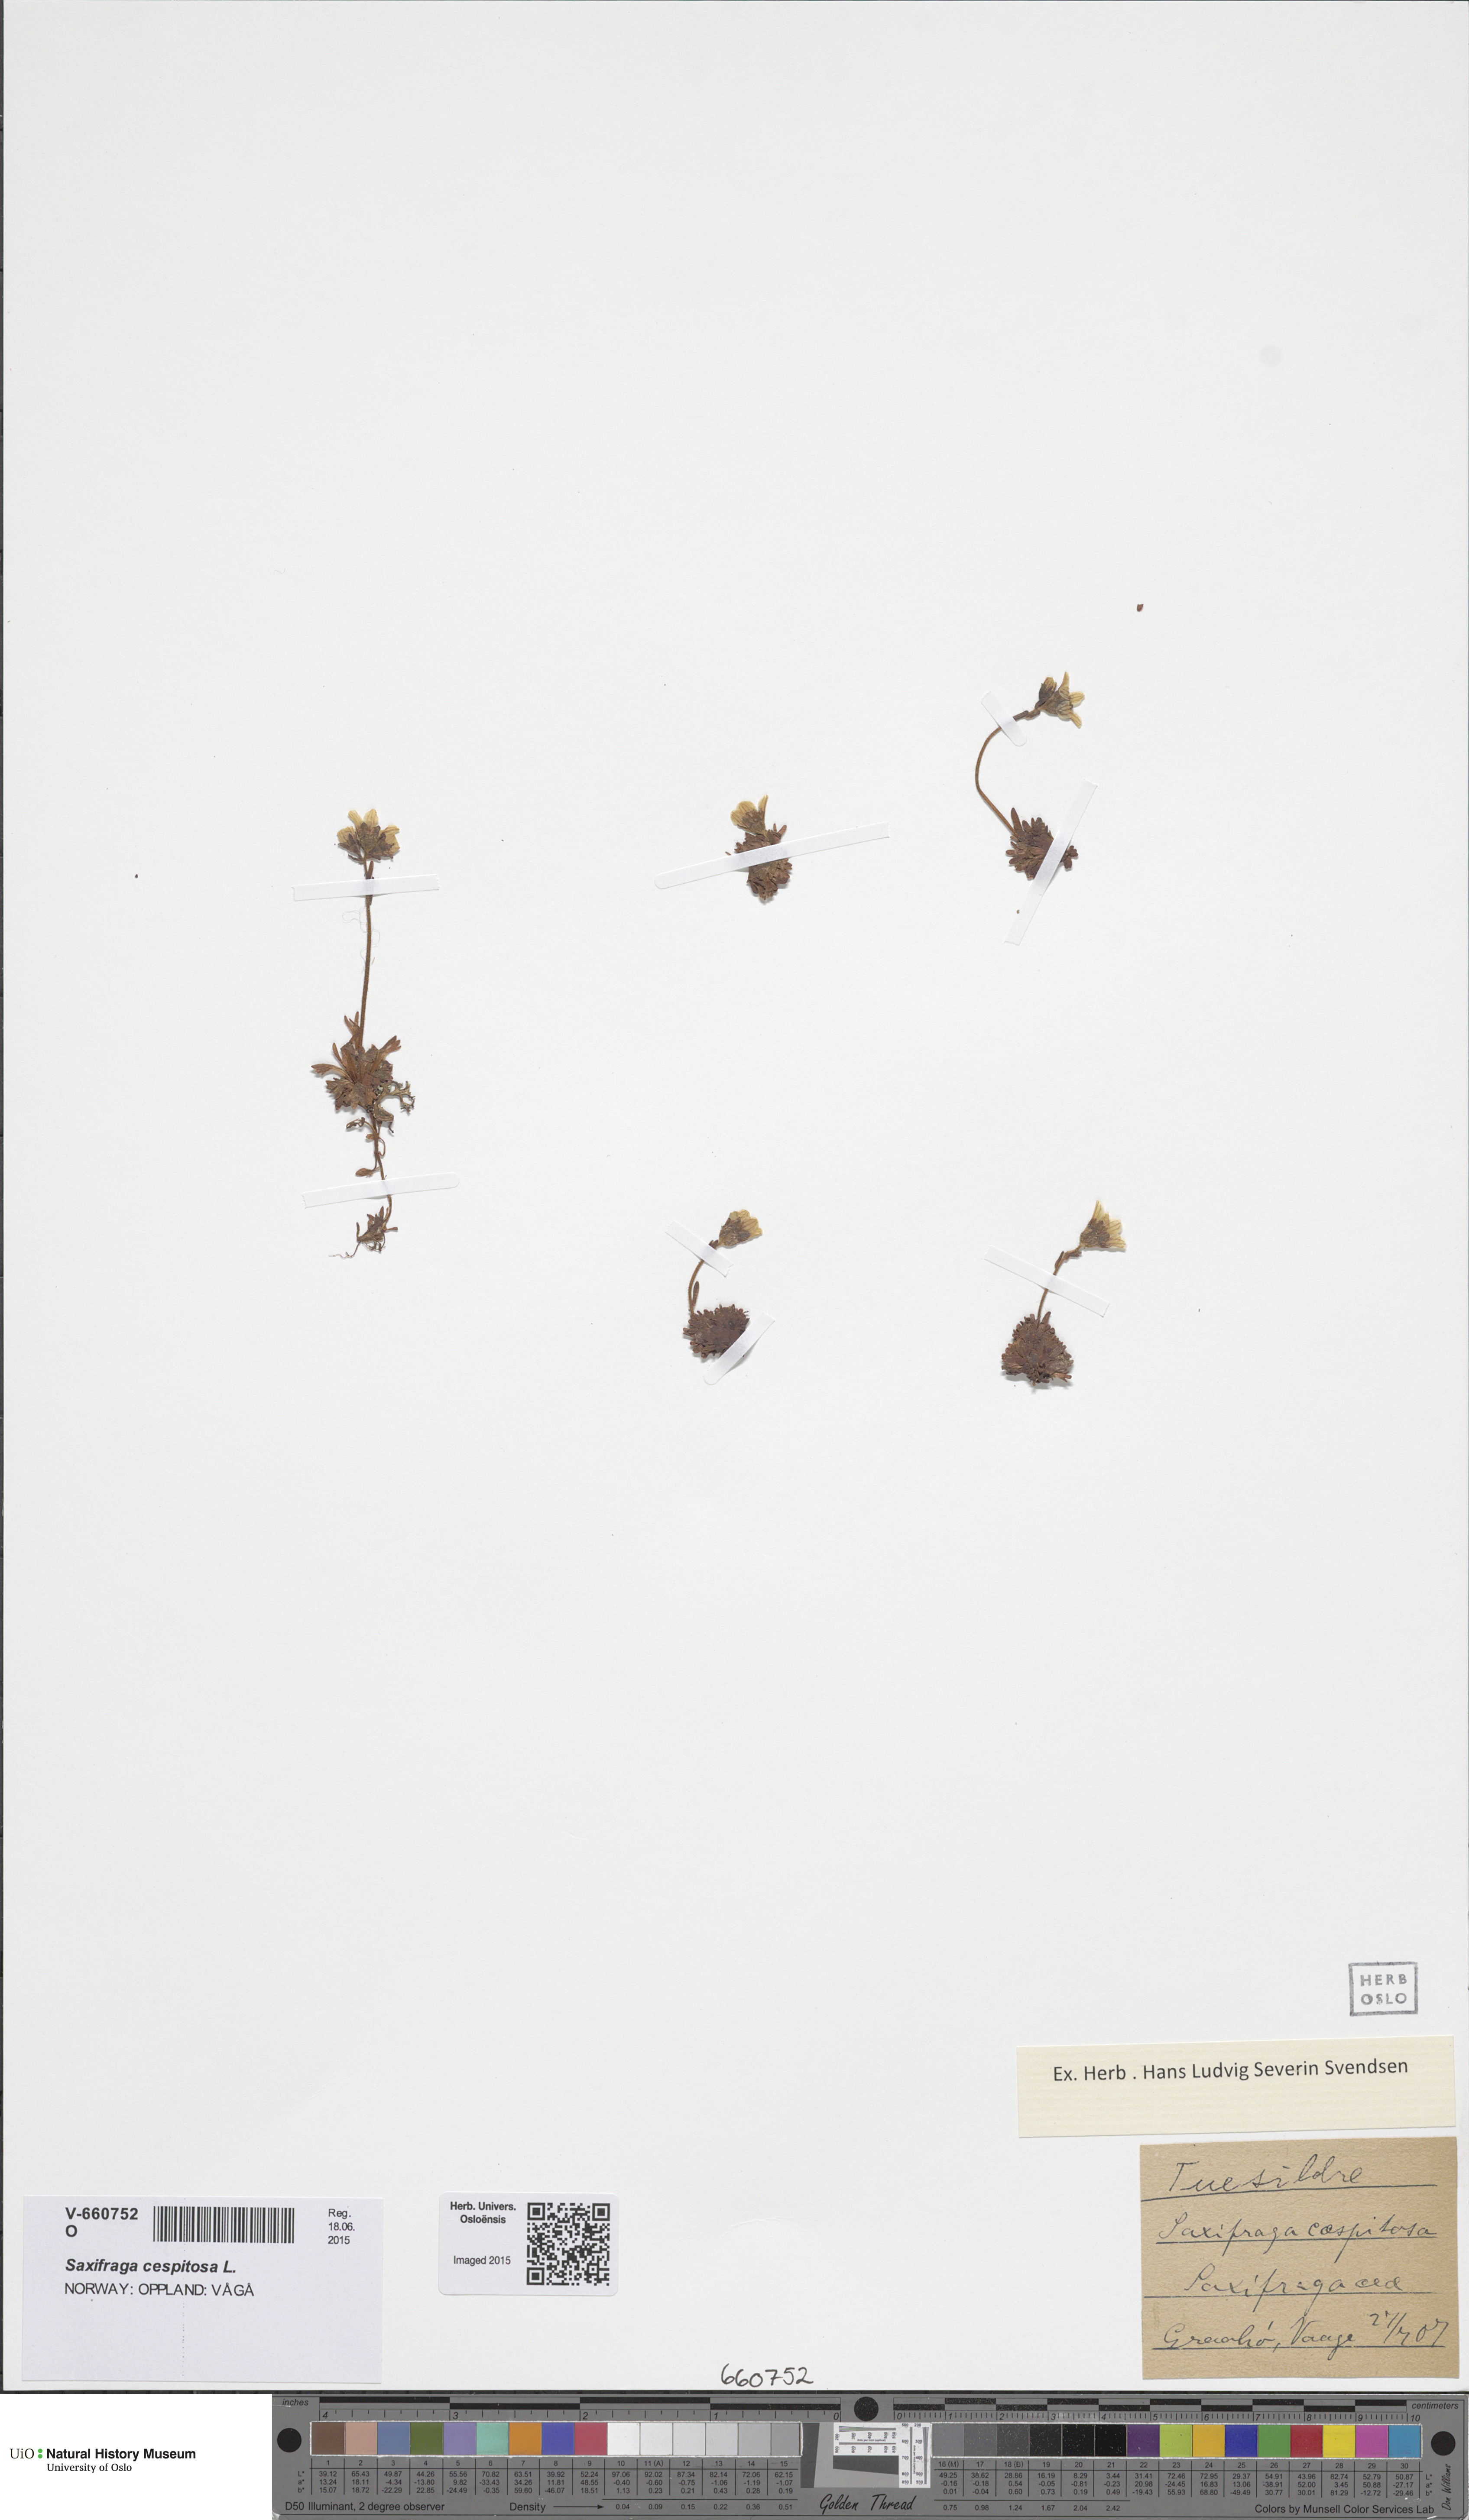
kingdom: Plantae
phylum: Tracheophyta
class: Magnoliopsida
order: Saxifragales
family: Saxifragaceae
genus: Saxifraga
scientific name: Saxifraga cespitosa
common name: Tufted saxifrage
